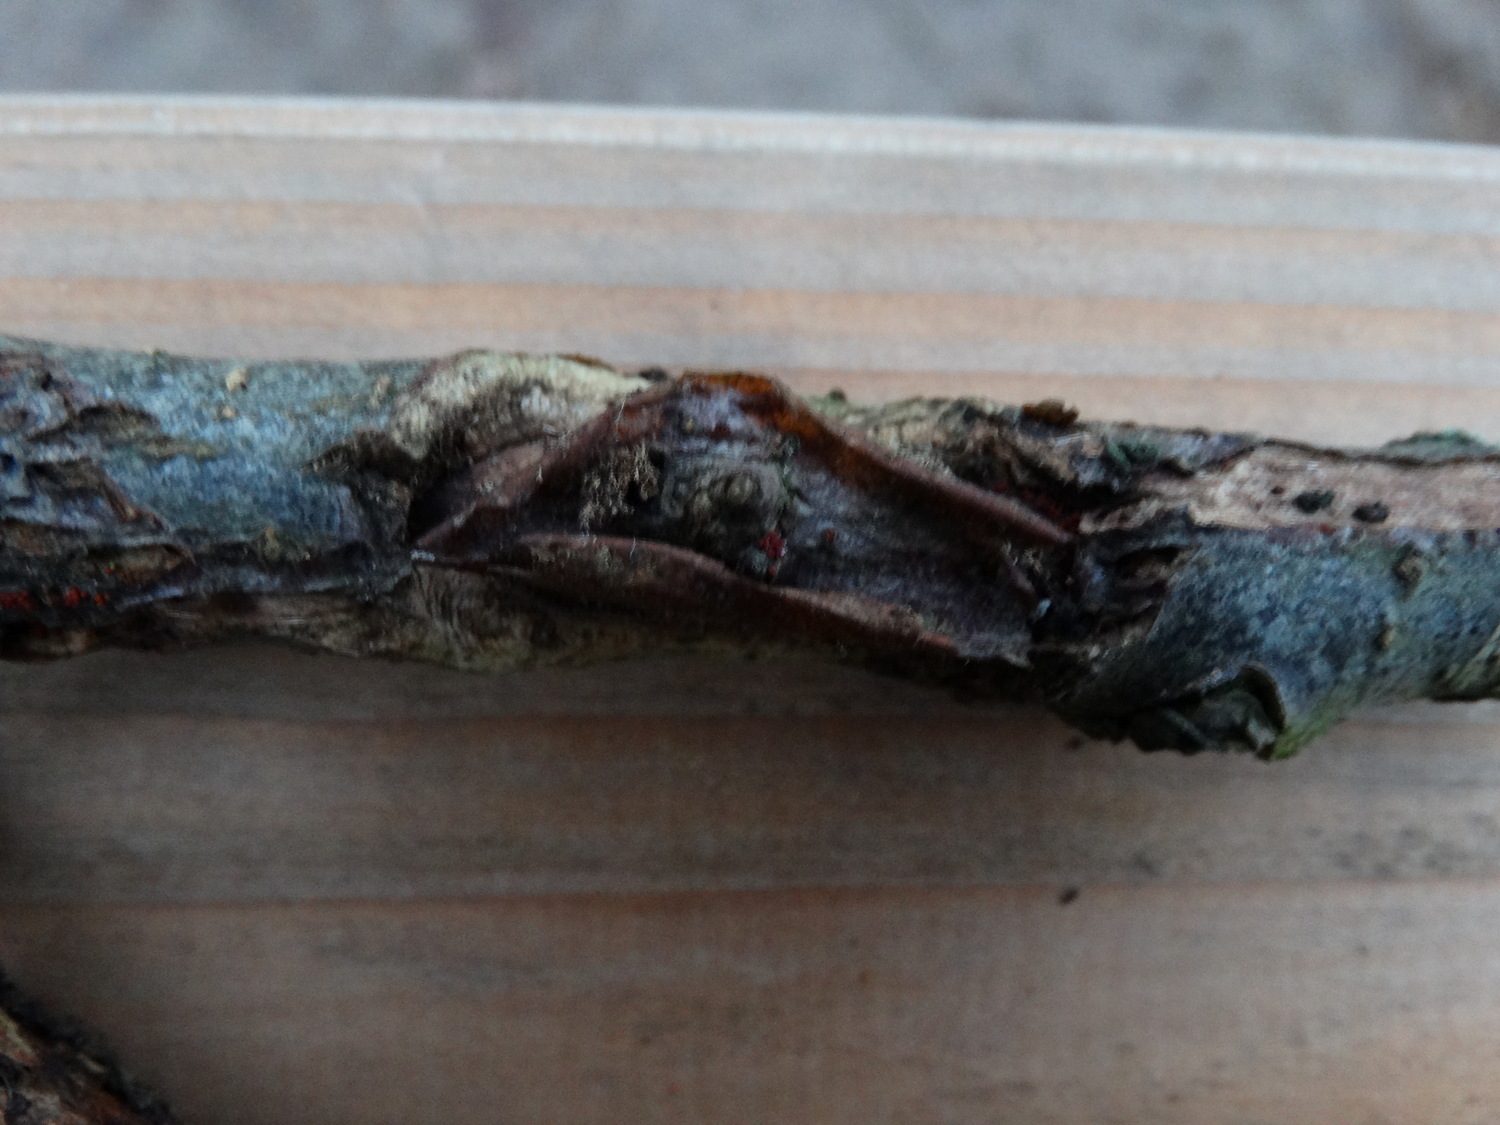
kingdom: Fungi
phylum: Ascomycota
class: Sordariomycetes
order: Hypocreales
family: Nectriaceae
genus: Neonectria
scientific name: Neonectria ditissima
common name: frugttræ-cinnobersvamp
